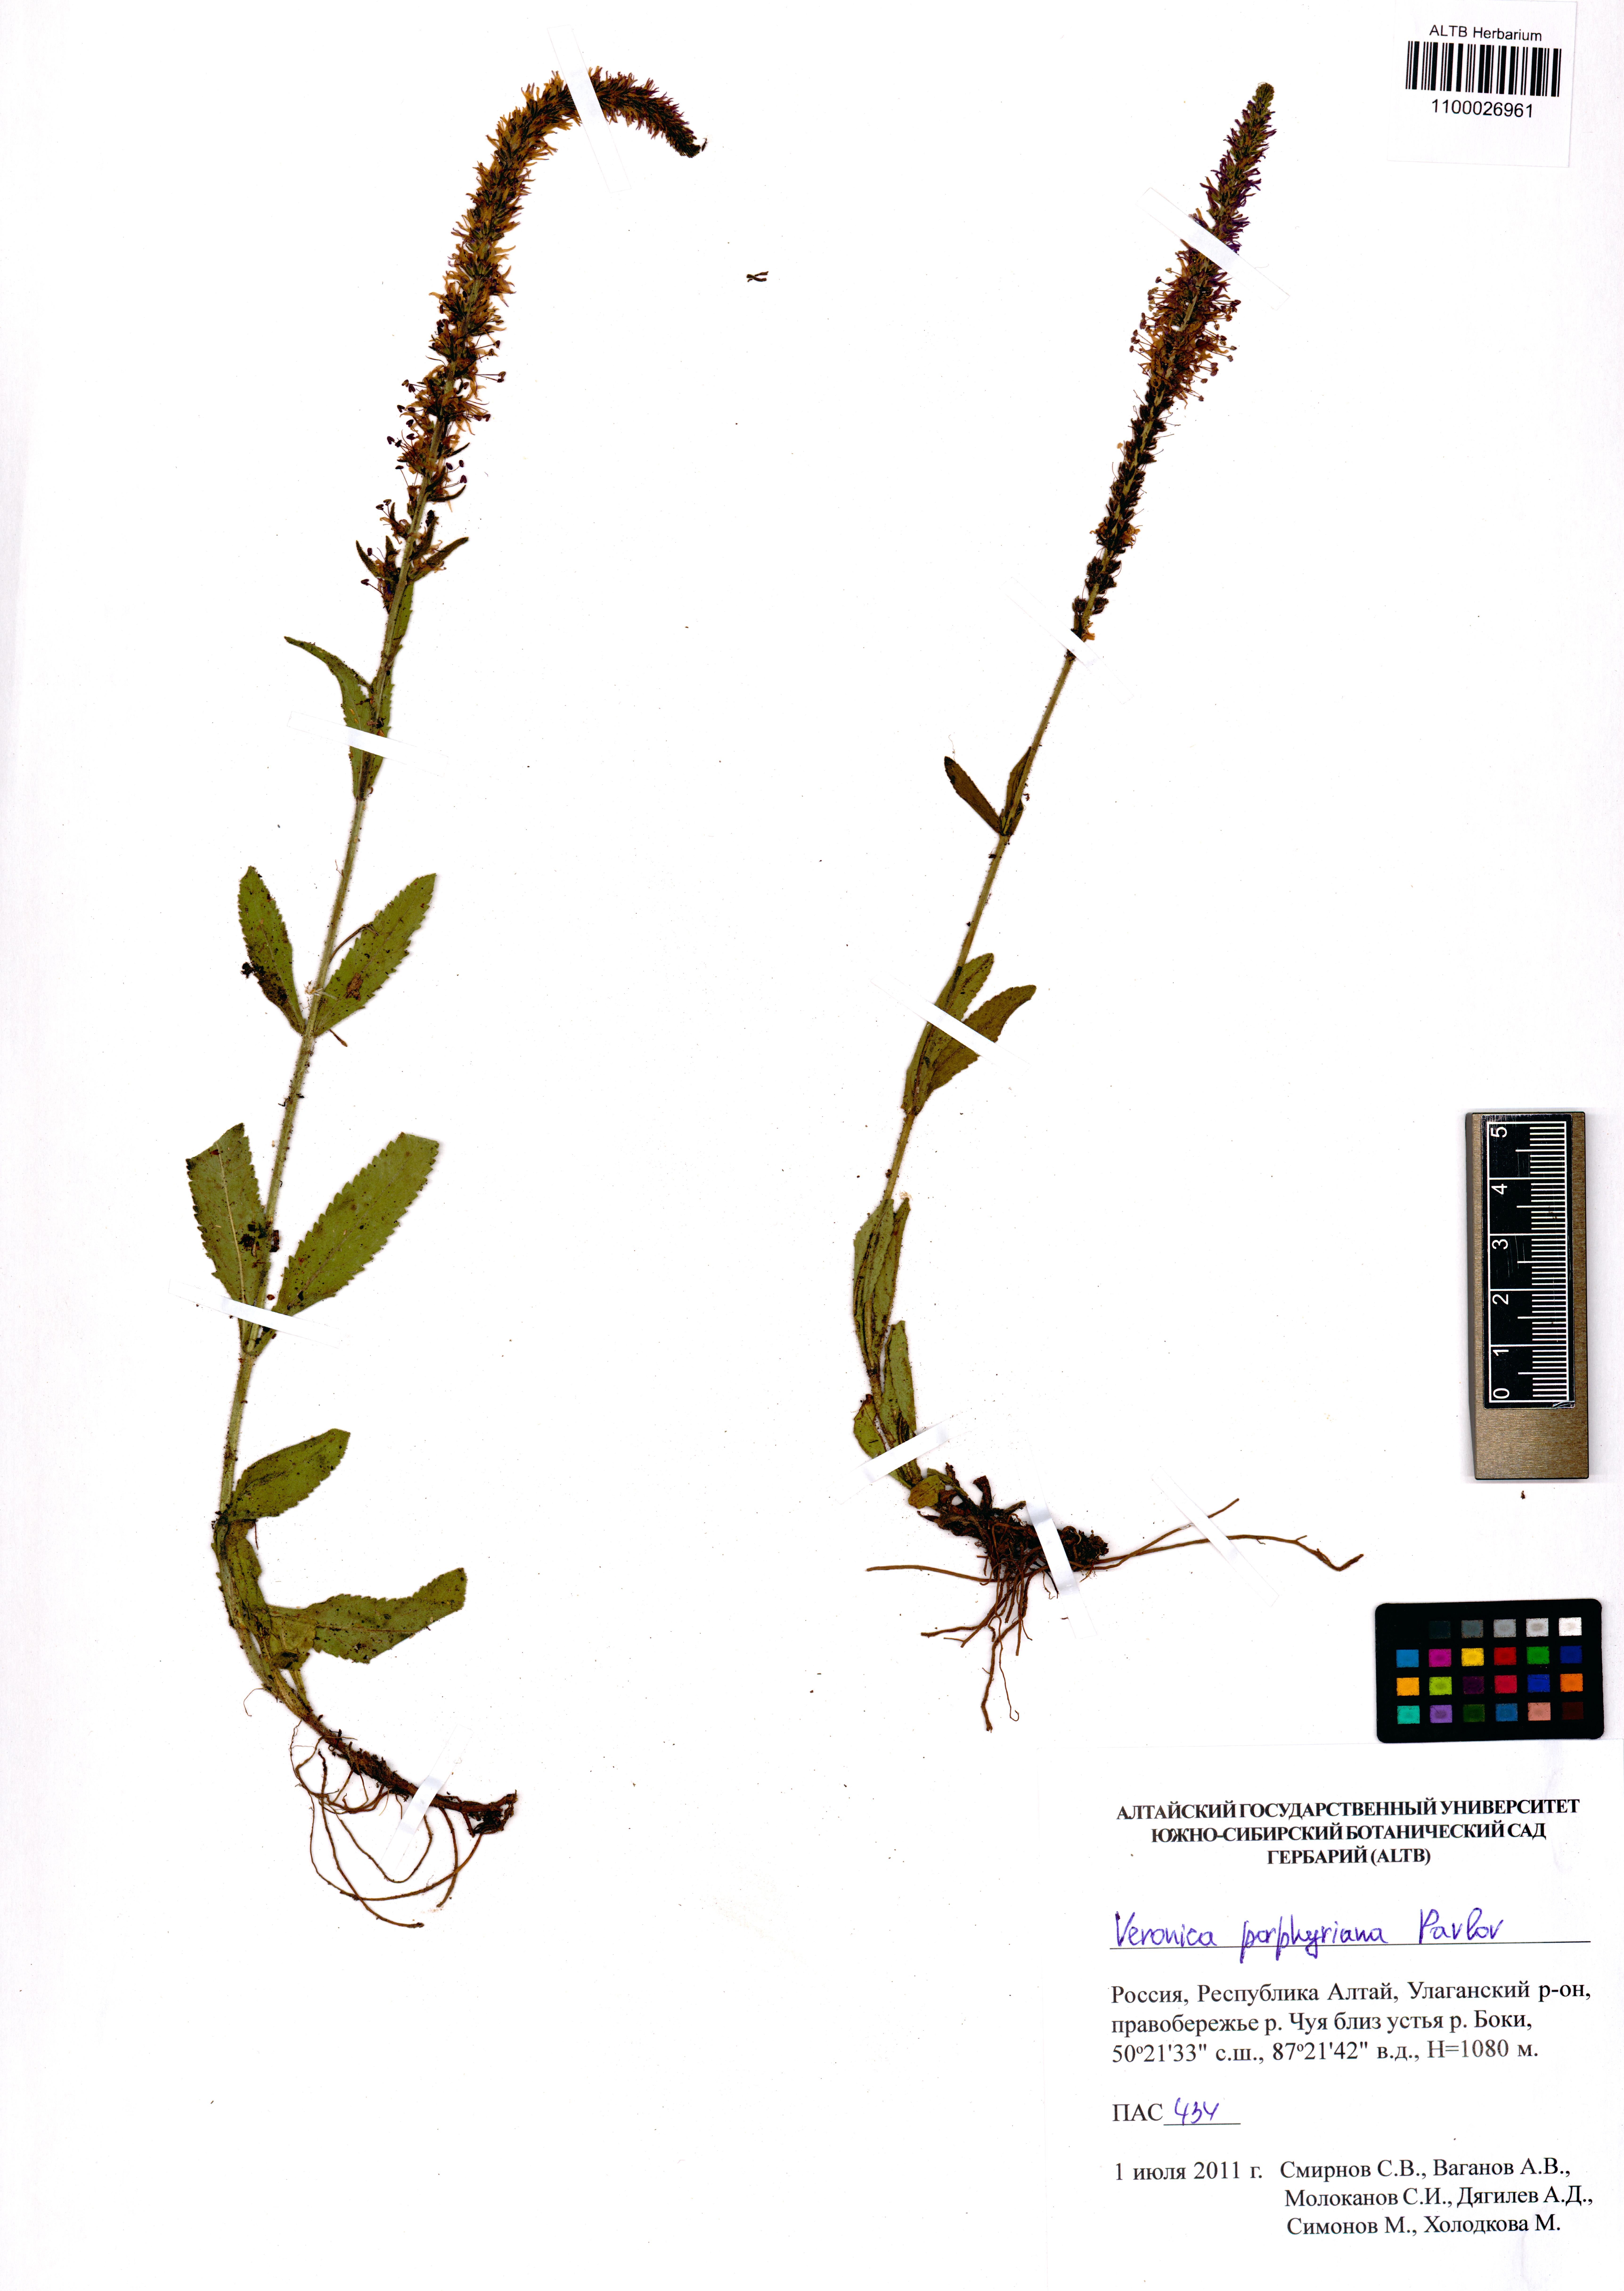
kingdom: Plantae
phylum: Tracheophyta
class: Magnoliopsida
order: Lamiales
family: Plantaginaceae
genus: Veronica
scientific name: Veronica porphyriana
